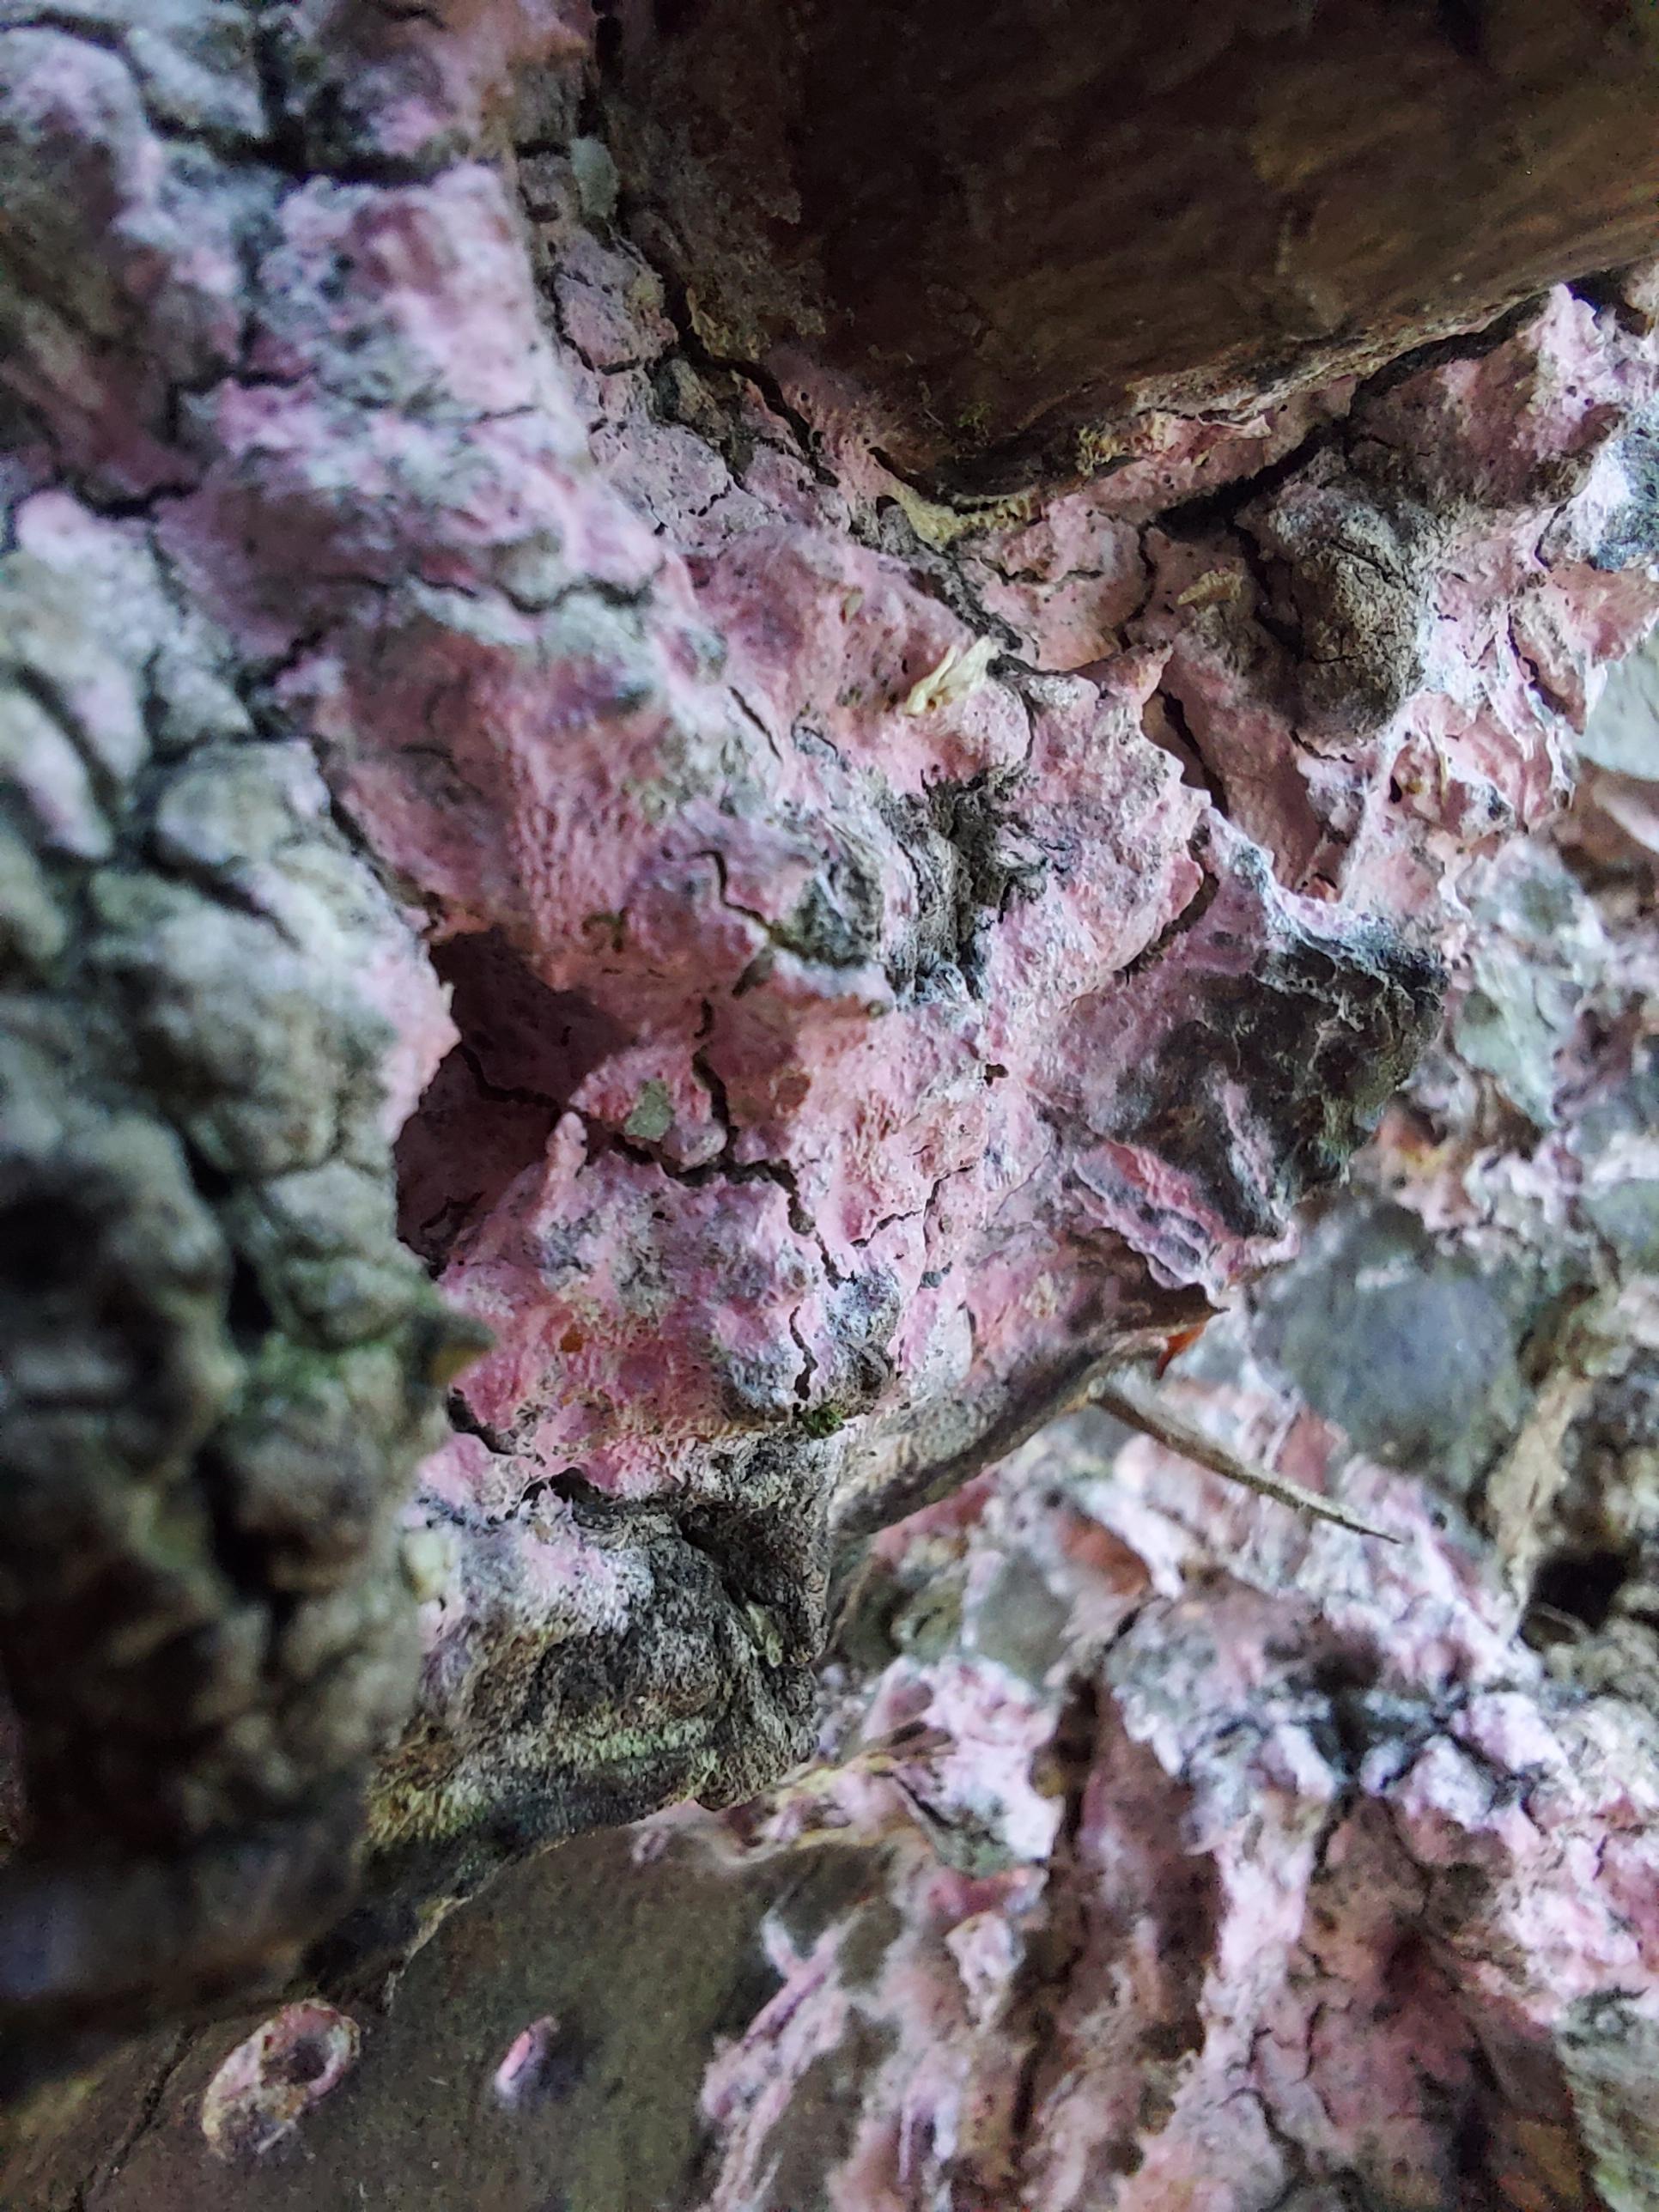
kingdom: Fungi
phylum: Basidiomycota
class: Agaricomycetes
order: Cantharellales
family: Tulasnellaceae
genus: Tulasnella
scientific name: Tulasnella violea
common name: violet ballonhinde
